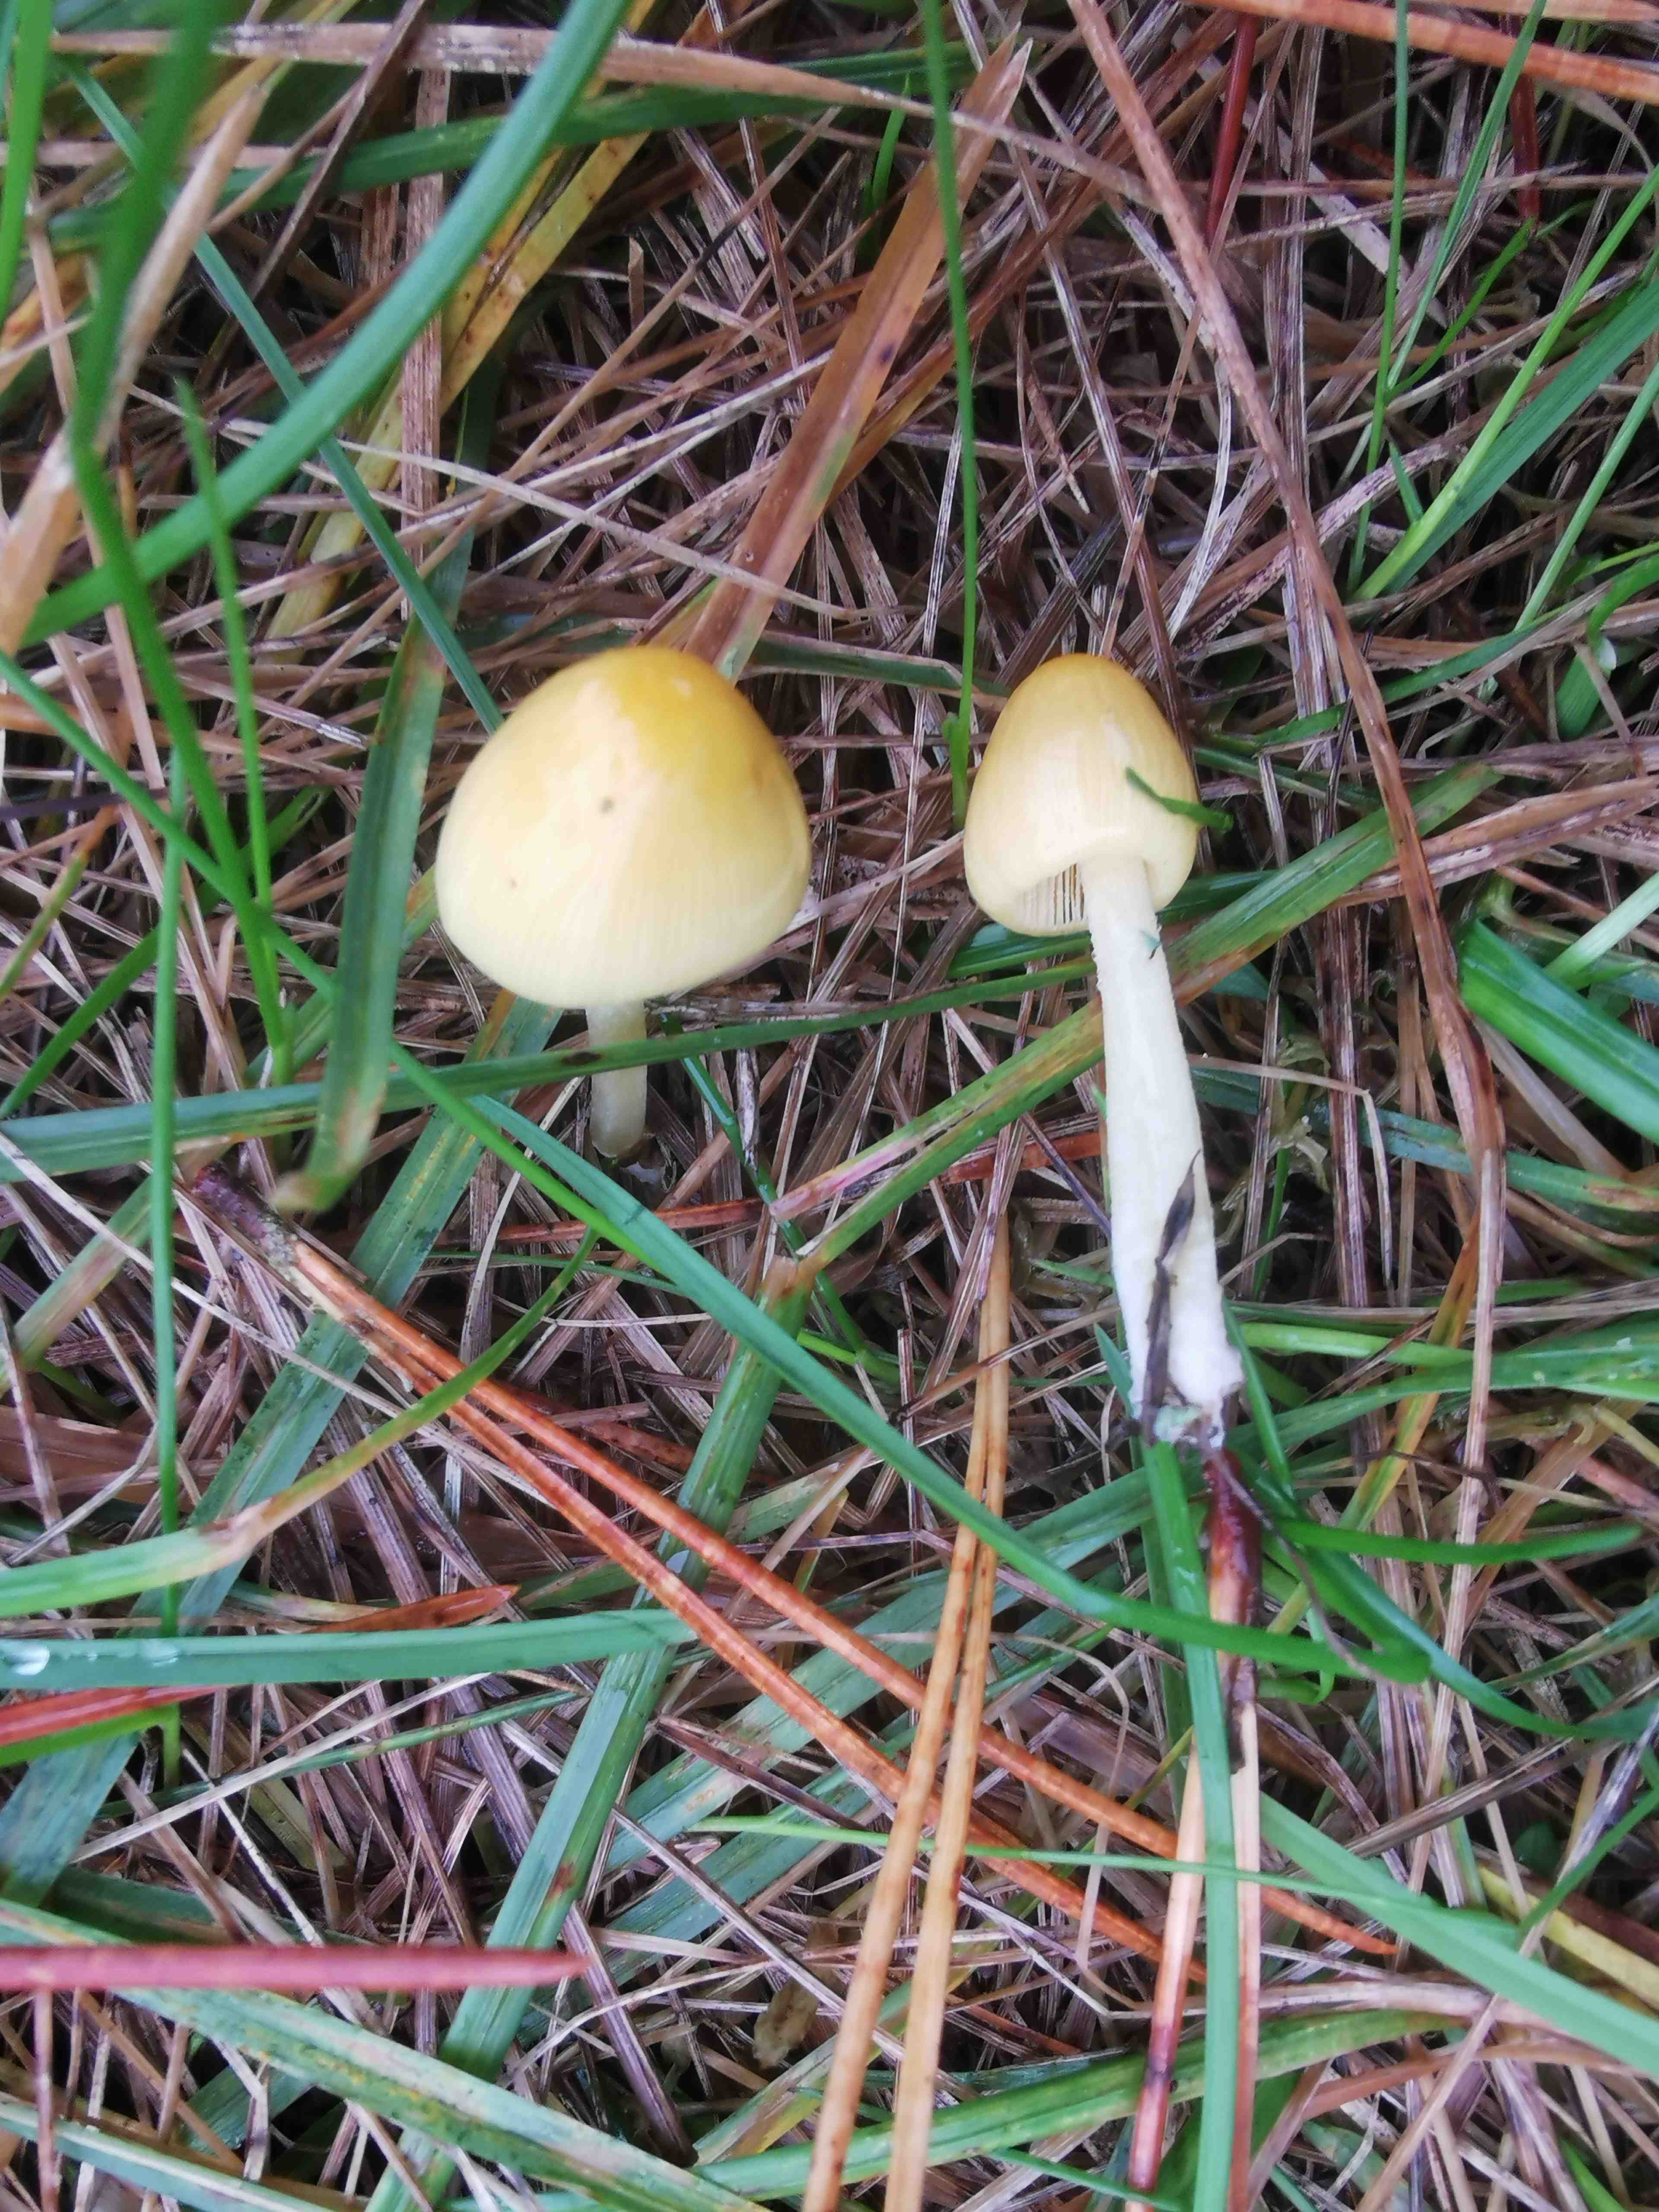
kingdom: Fungi
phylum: Basidiomycota
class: Agaricomycetes
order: Agaricales
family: Bolbitiaceae
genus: Bolbitius
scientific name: Bolbitius titubans
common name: almindelig gulhat
